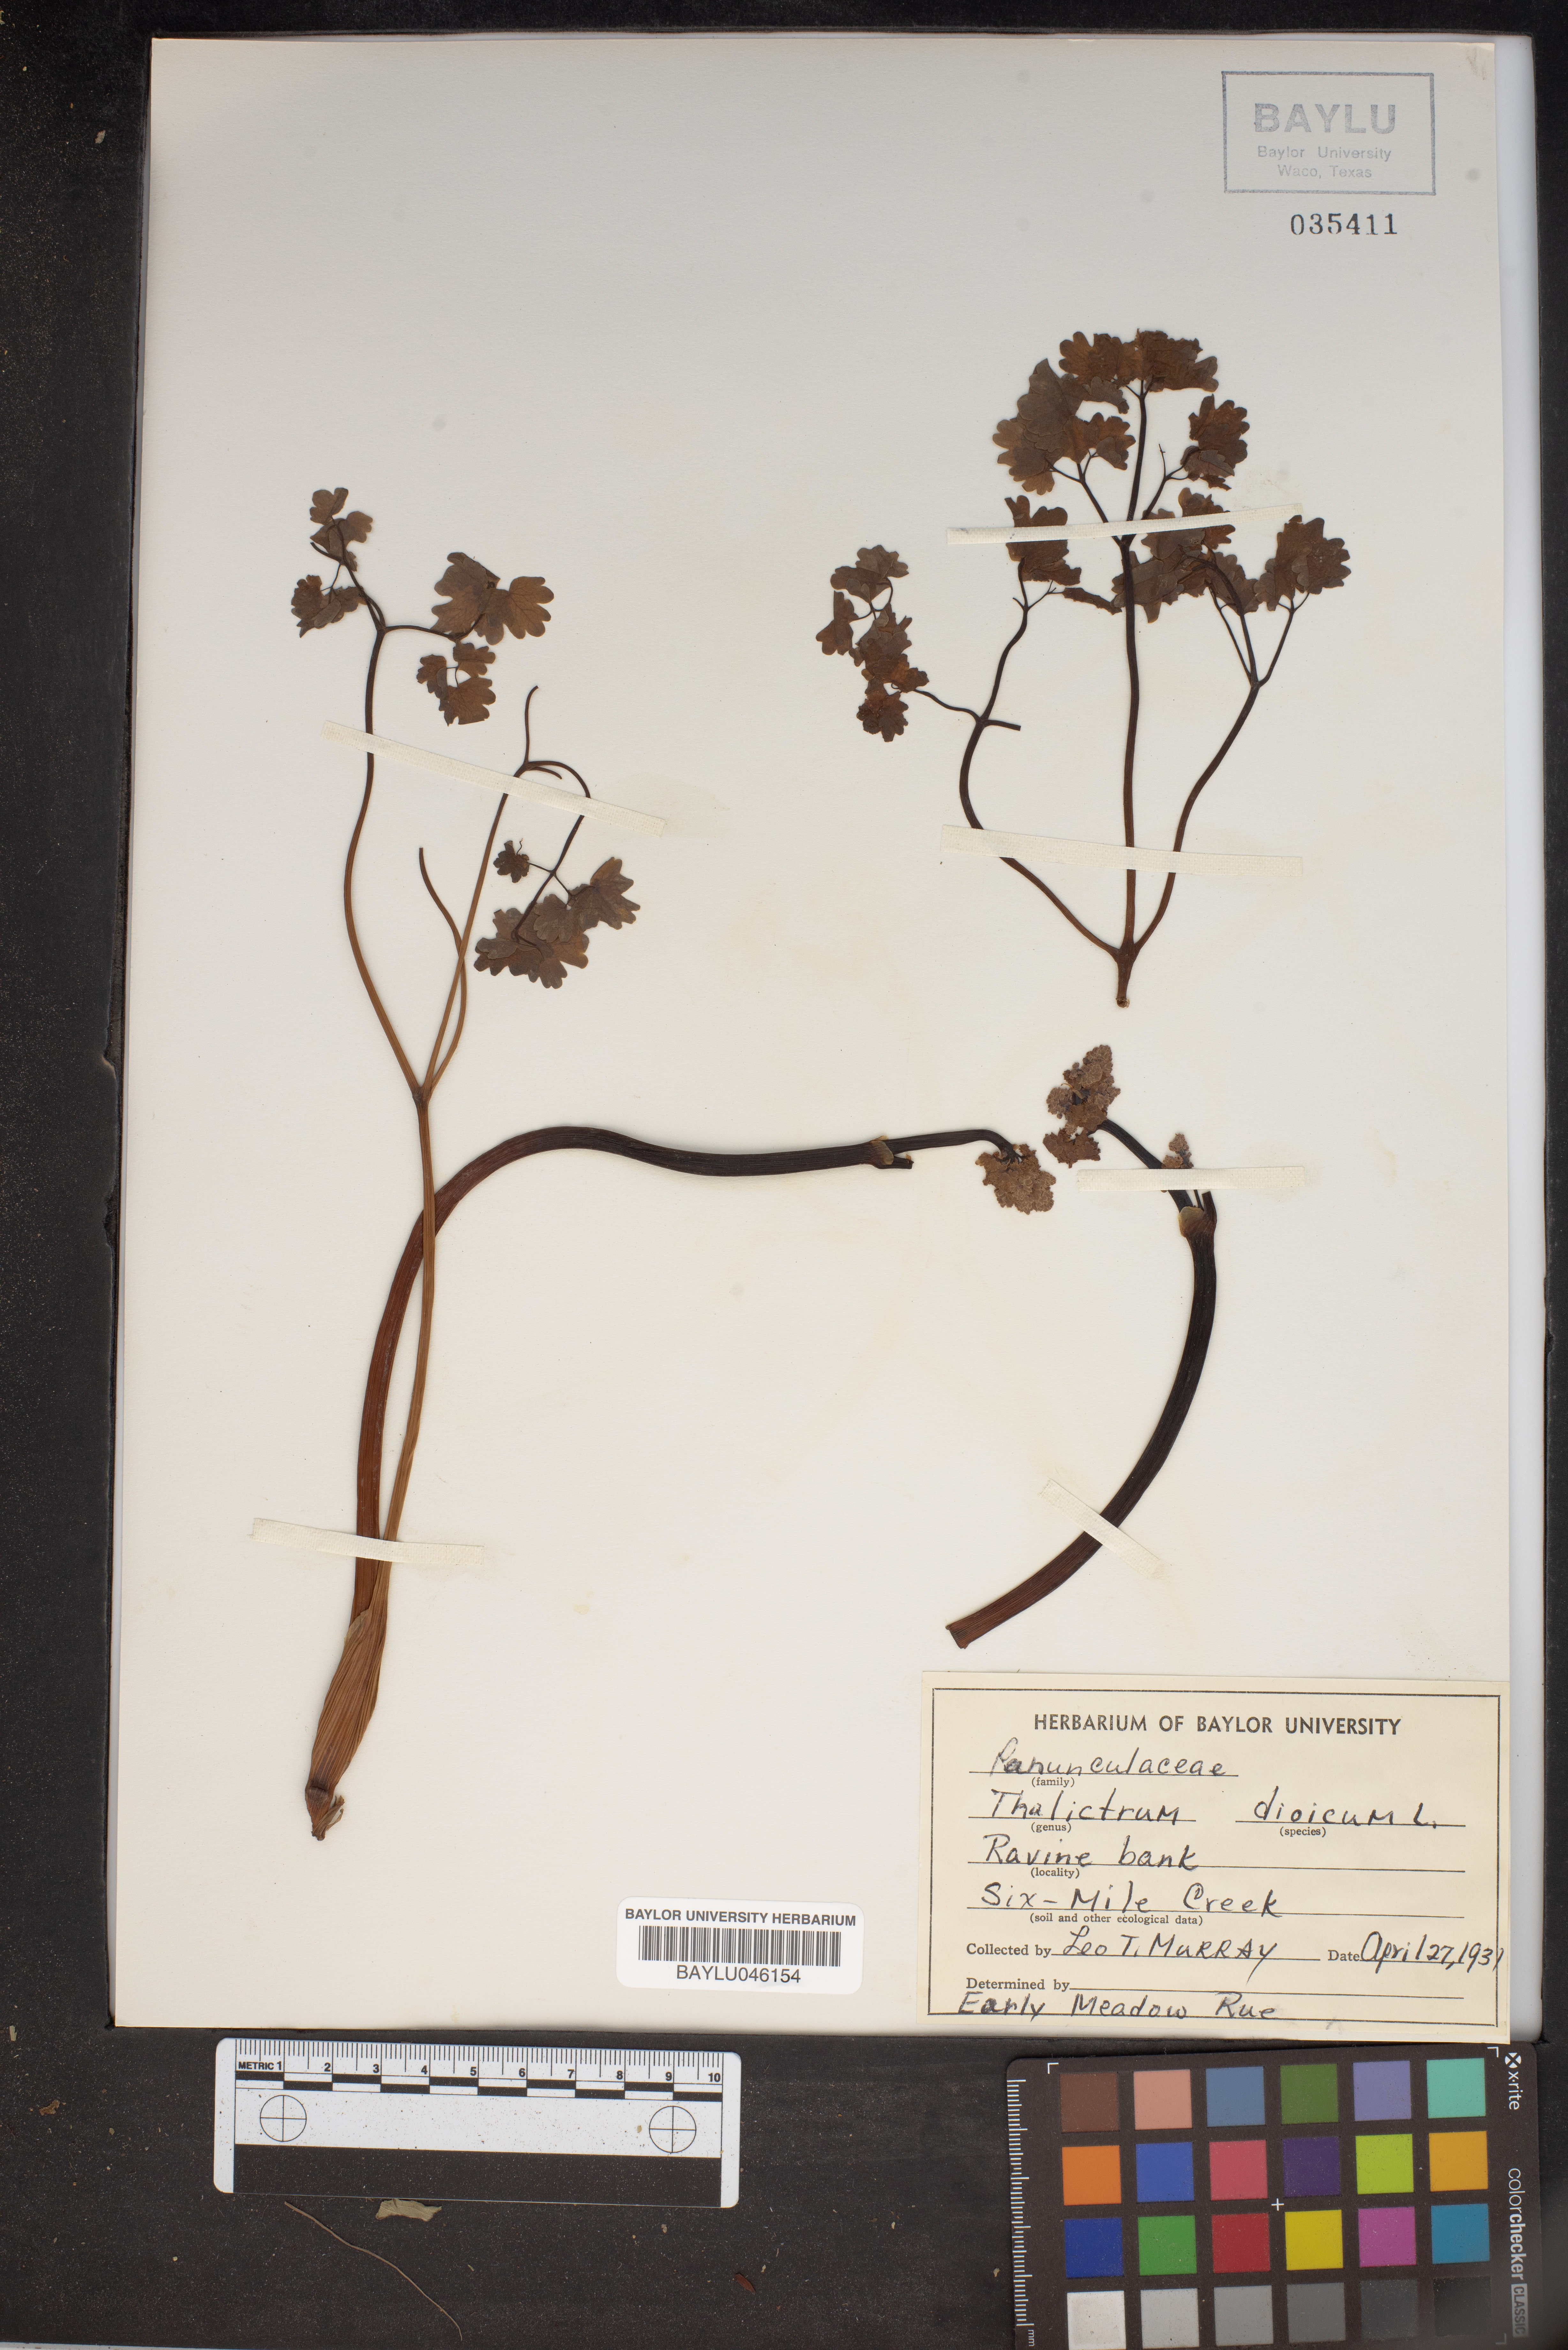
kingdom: Plantae
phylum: Tracheophyta
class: Magnoliopsida
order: Ranunculales
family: Ranunculaceae
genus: Thalictrum
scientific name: Thalictrum dioicum
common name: Early meadow-rue
